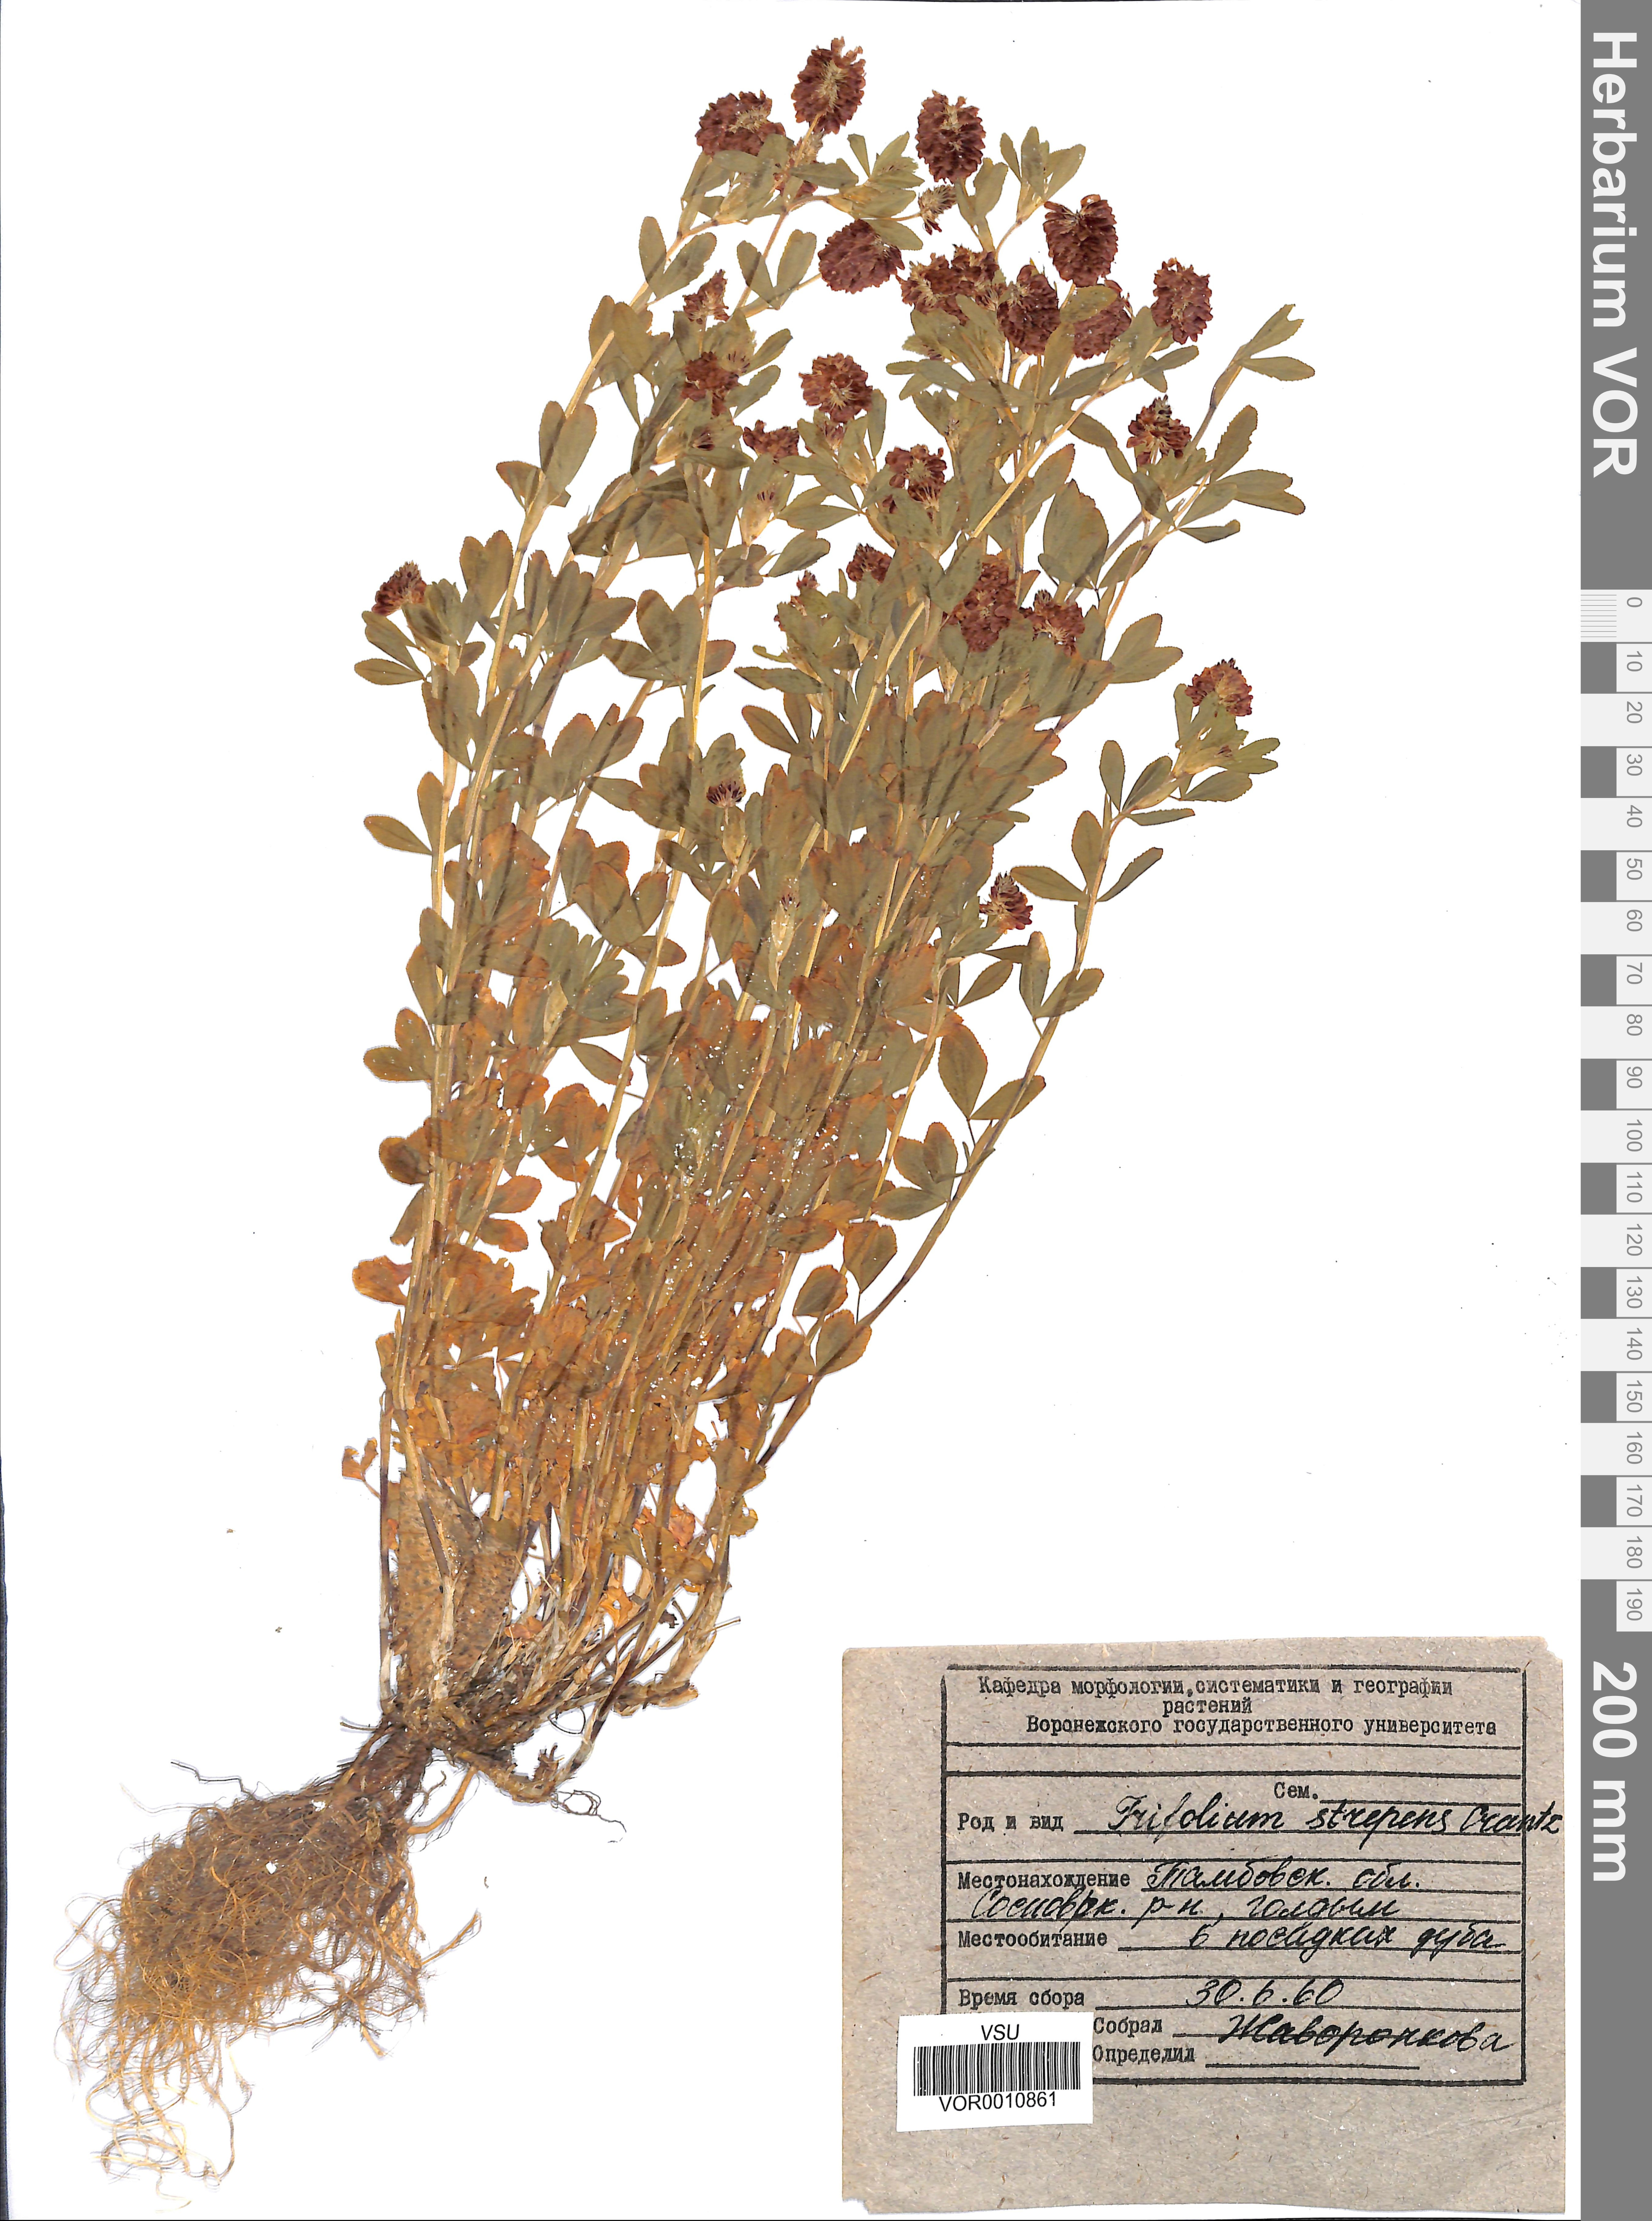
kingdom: Plantae
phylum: Tracheophyta
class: Magnoliopsida
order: Fabales
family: Fabaceae
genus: Trifolium
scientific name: Trifolium aureum
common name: Golden clover
